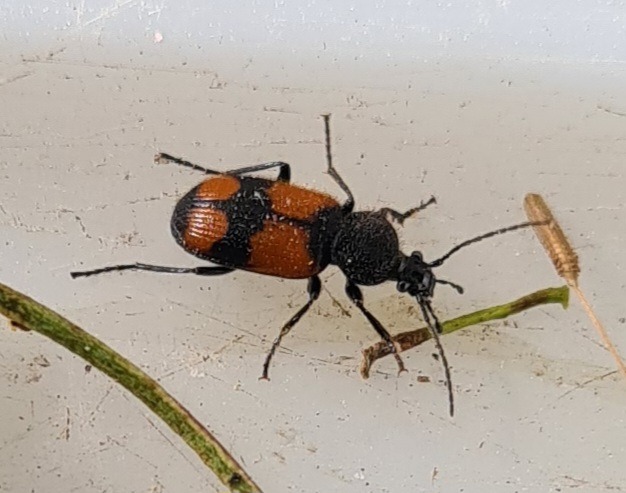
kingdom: Animalia
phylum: Arthropoda
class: Insecta
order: Coleoptera
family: Carabidae
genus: Panagaeus
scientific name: Panagaeus cruxmajor
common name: Stor korsløber
